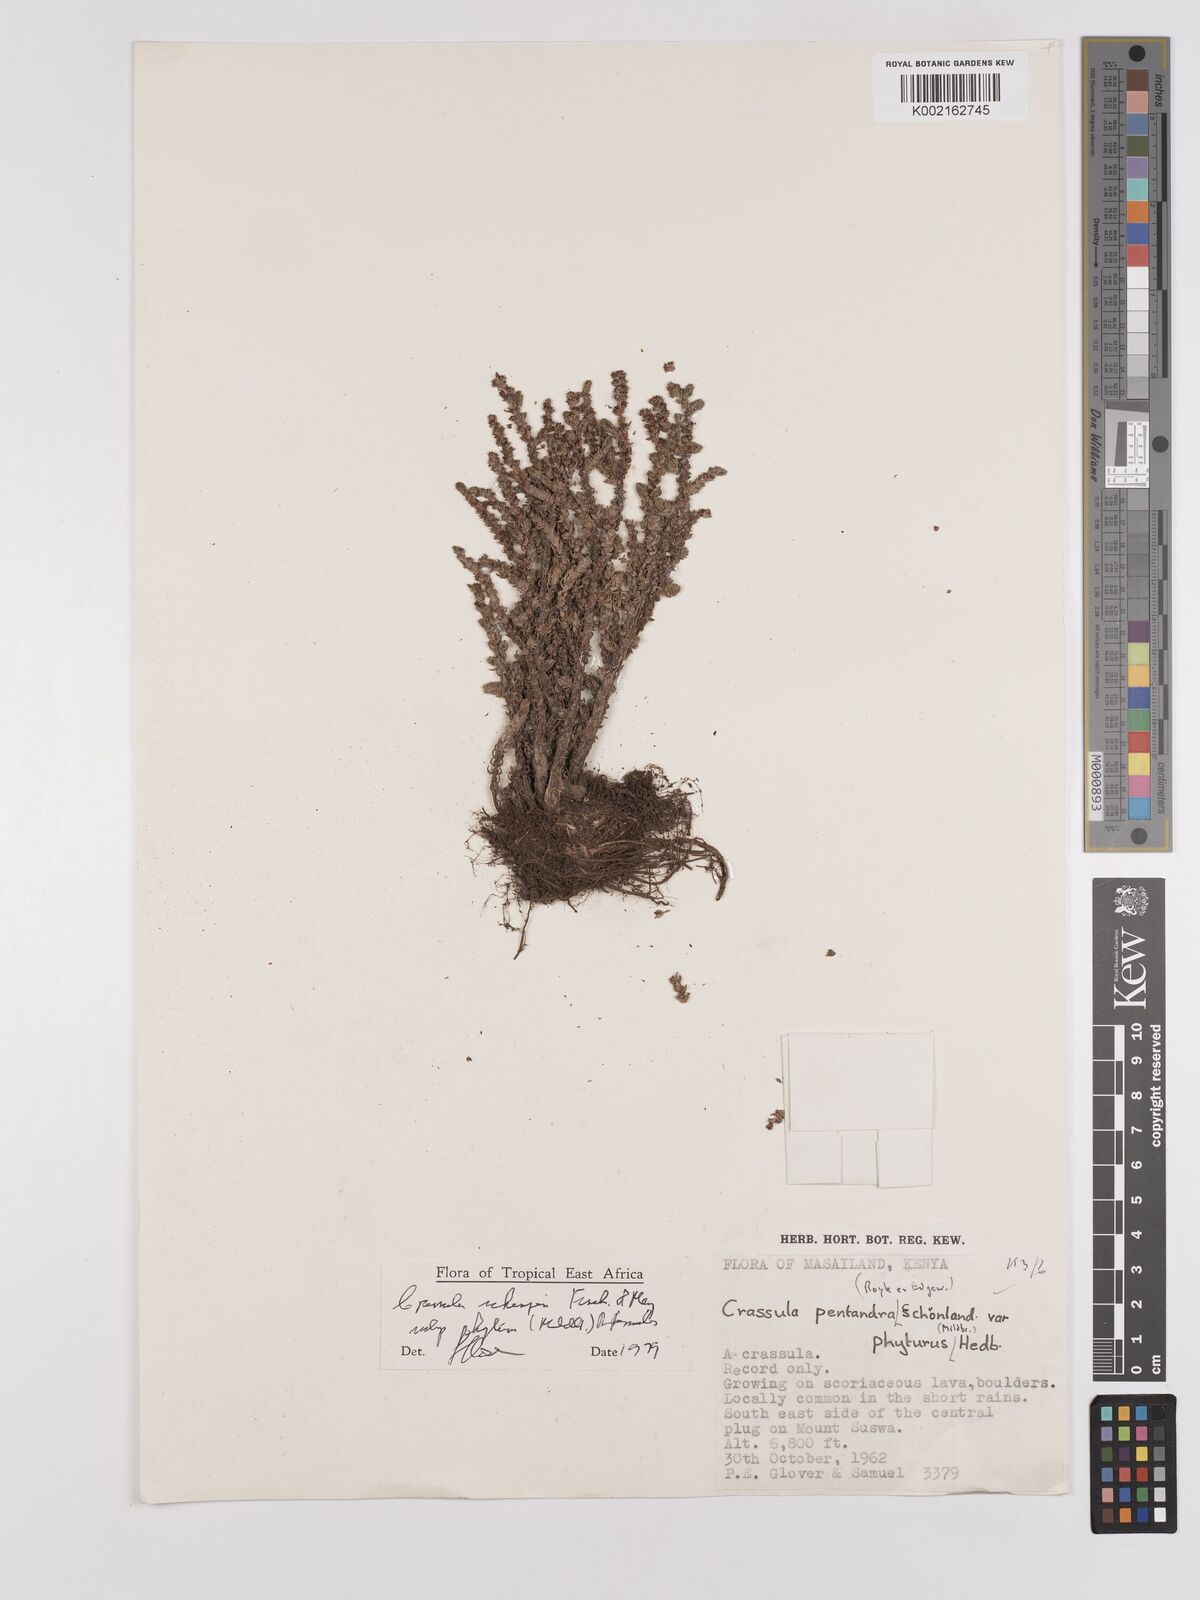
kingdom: Plantae
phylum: Tracheophyta
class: Magnoliopsida
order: Saxifragales
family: Crassulaceae
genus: Crassula
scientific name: Crassula schimperi
